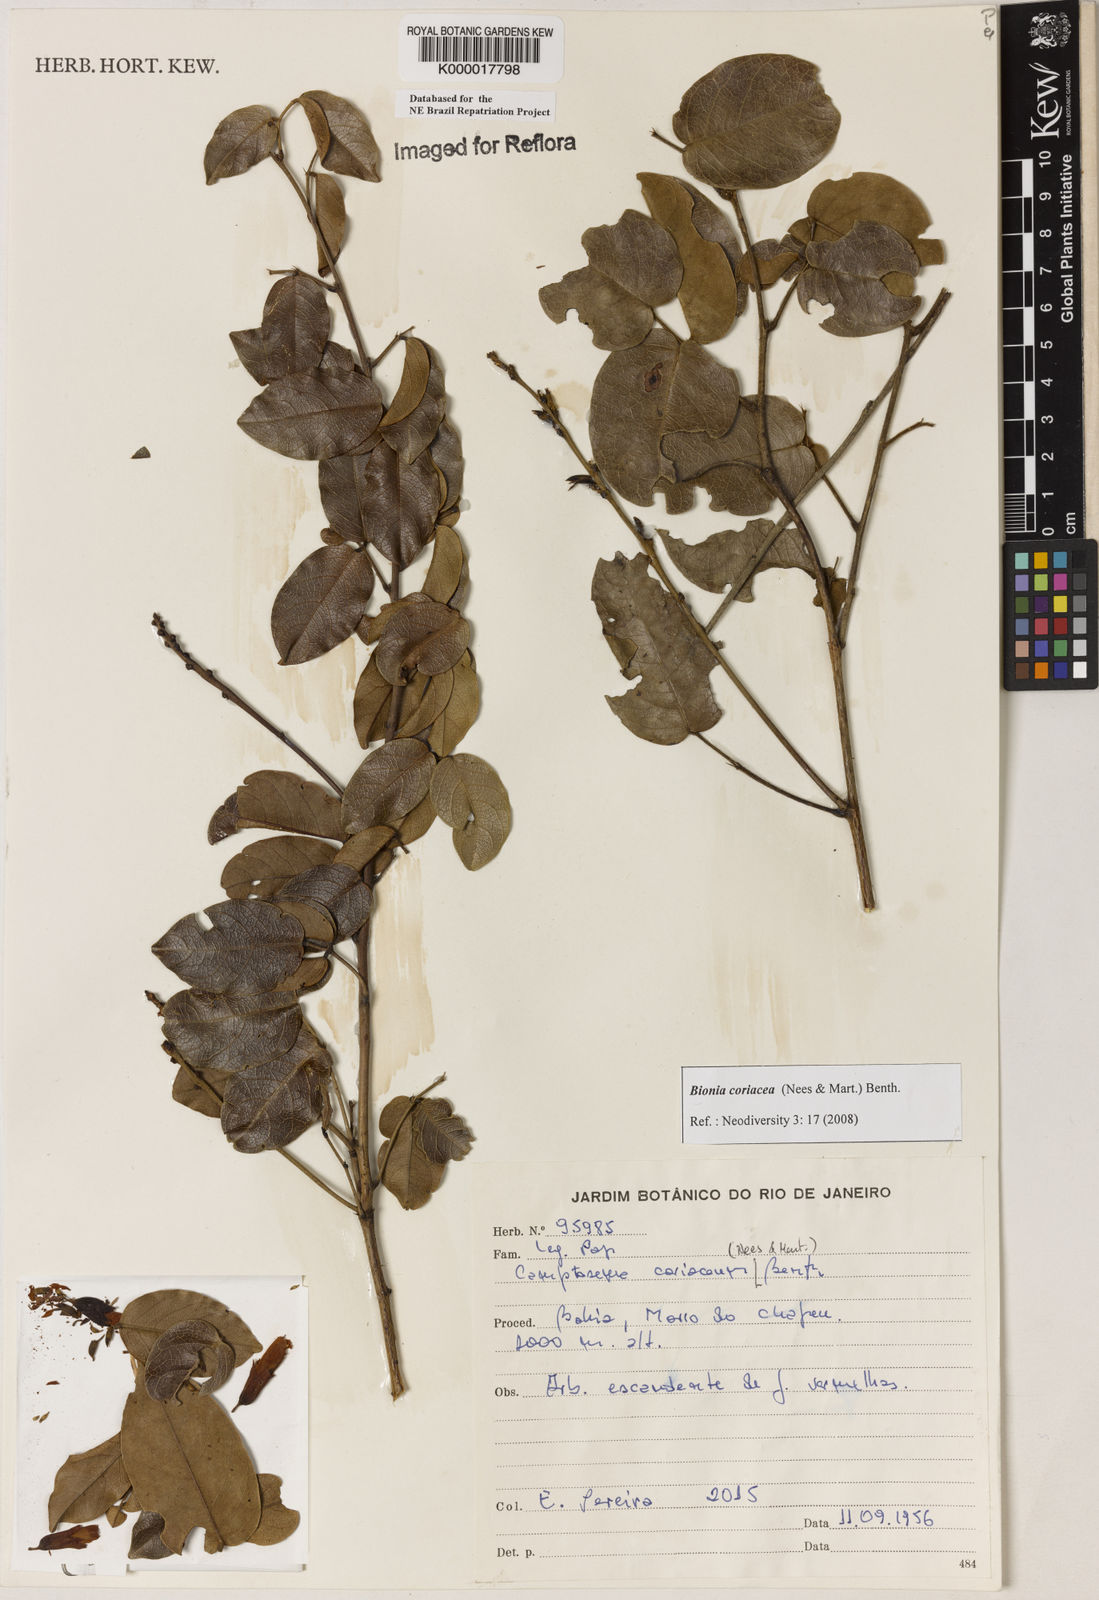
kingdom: Plantae
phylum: Tracheophyta
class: Magnoliopsida
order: Fabales
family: Fabaceae
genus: Camptosema
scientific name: Camptosema coriaceum
